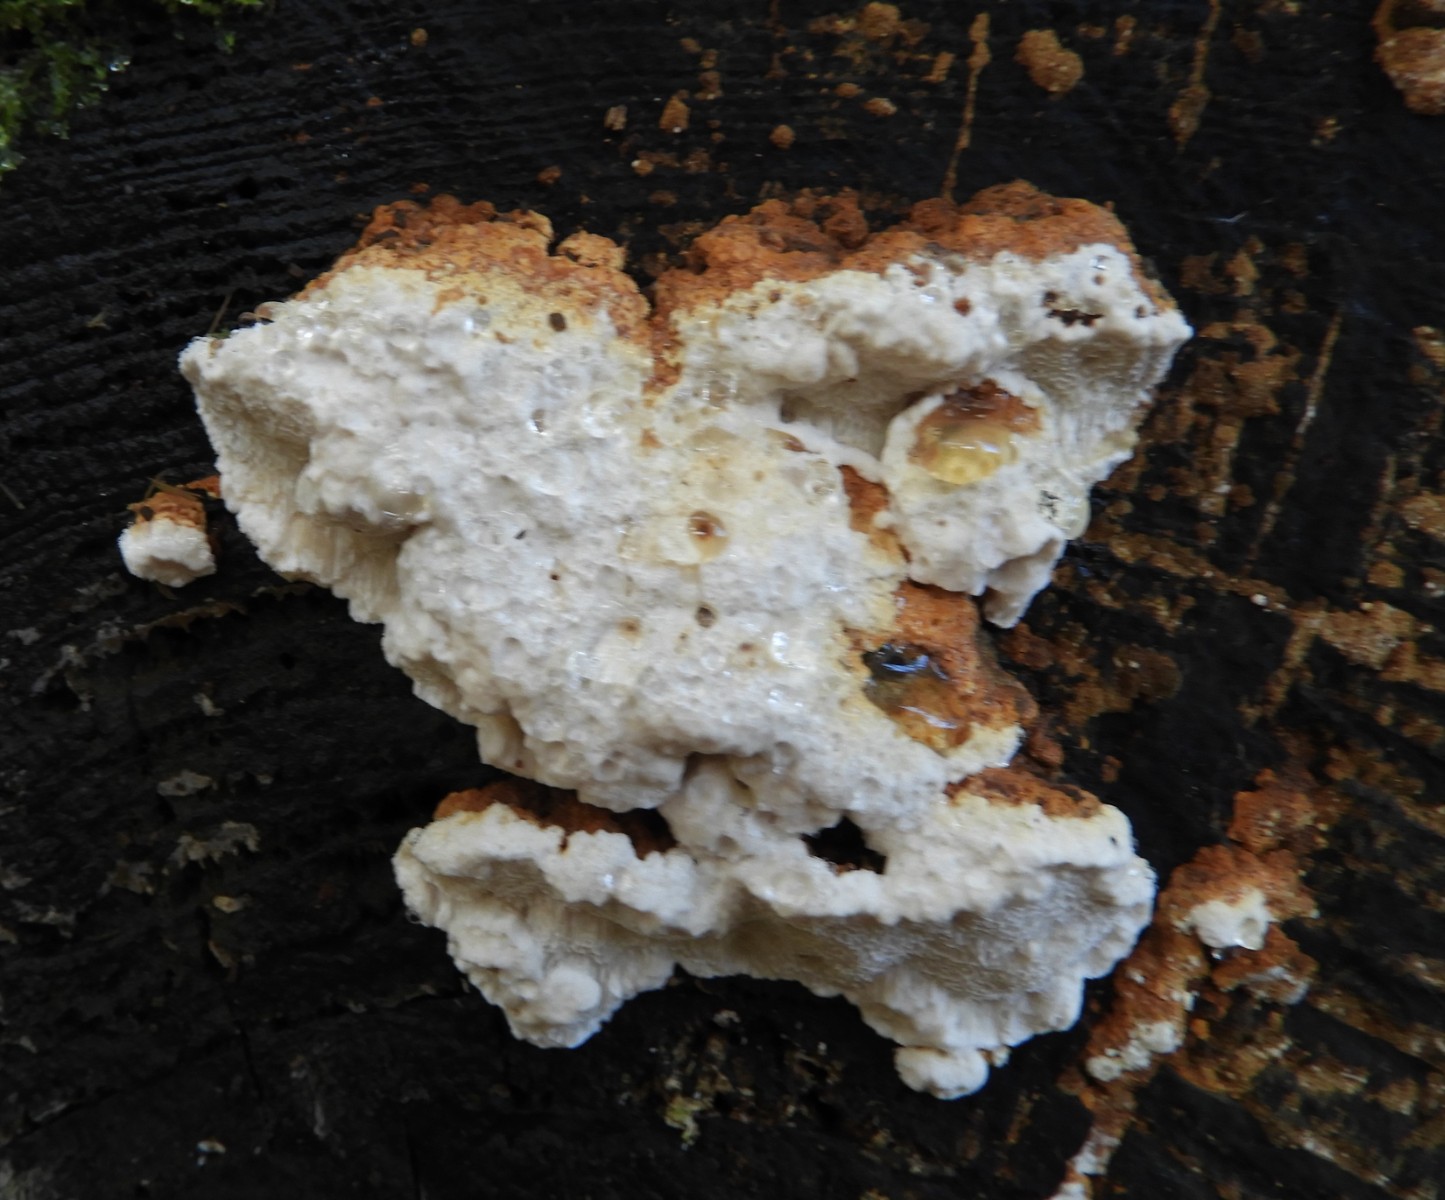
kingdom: Fungi
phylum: Basidiomycota
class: Agaricomycetes
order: Polyporales
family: Fomitopsidaceae
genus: Neoantrodia
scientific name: Neoantrodia serialis
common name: række-sejporesvamp
